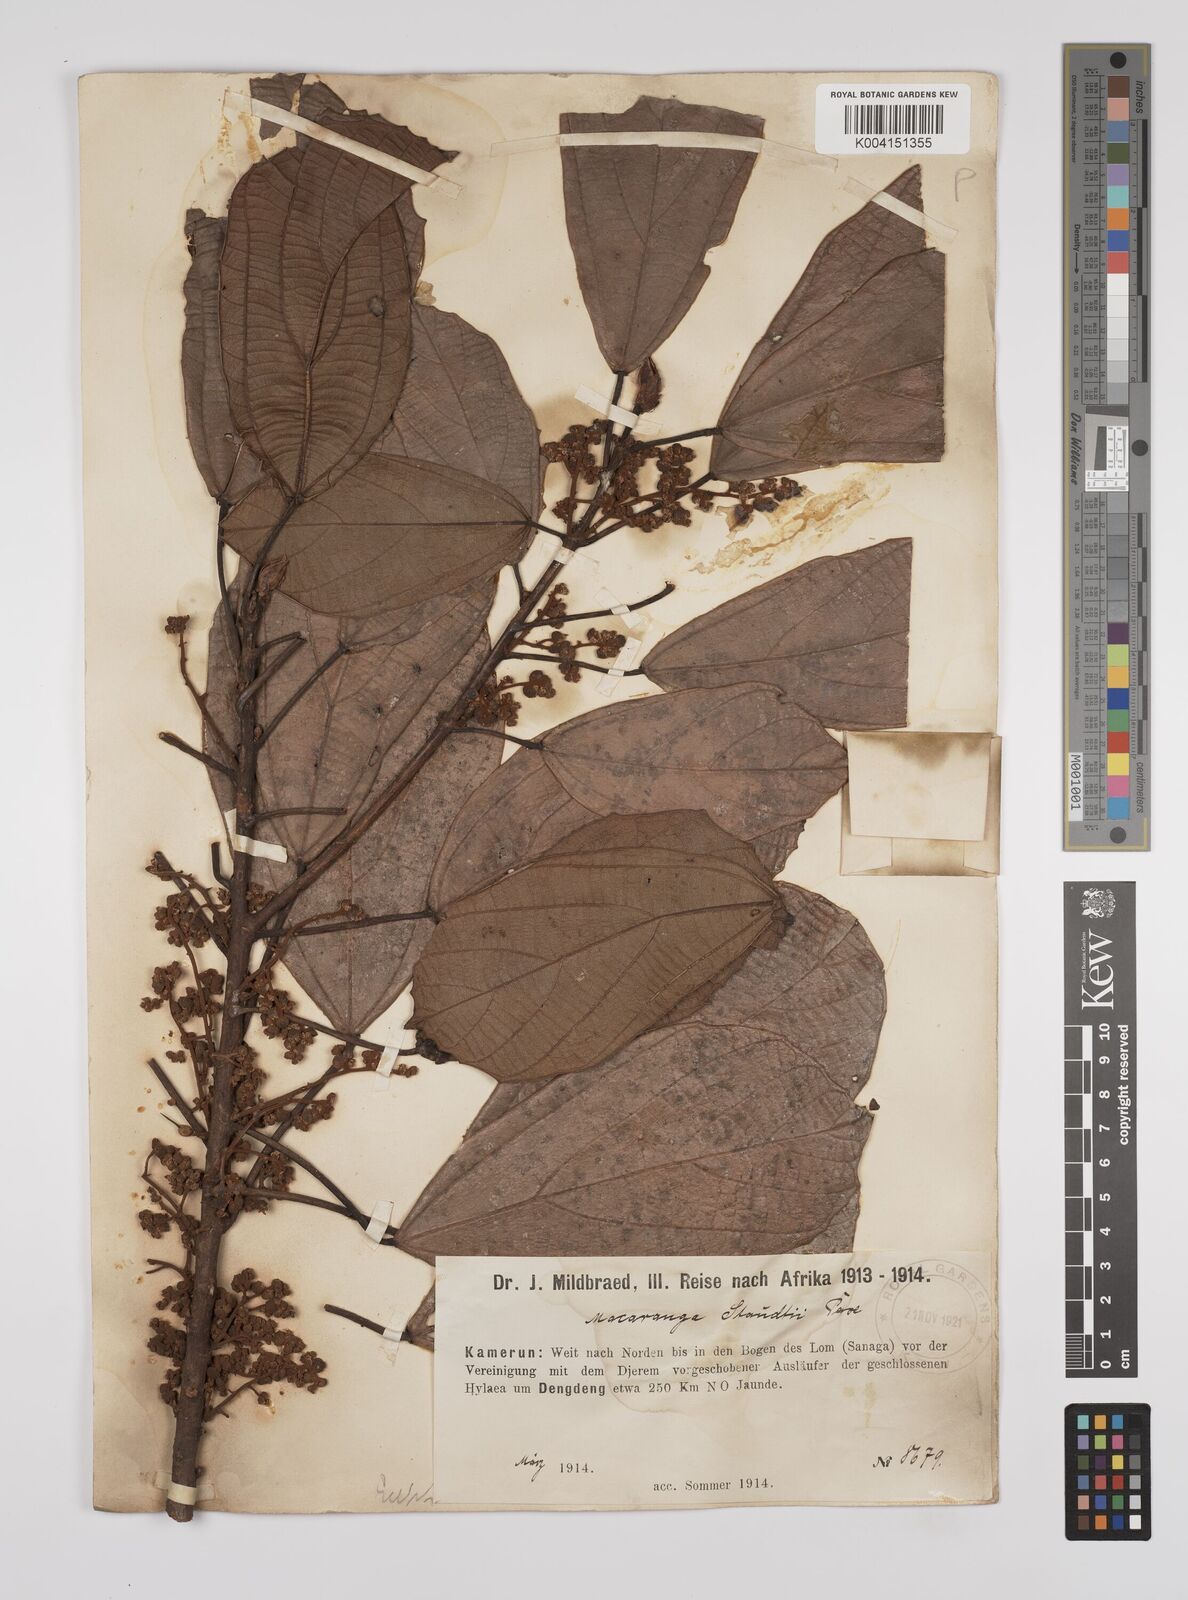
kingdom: Plantae
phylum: Tracheophyta
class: Magnoliopsida
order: Malpighiales
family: Euphorbiaceae
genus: Macaranga
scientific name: Macaranga staudtii
